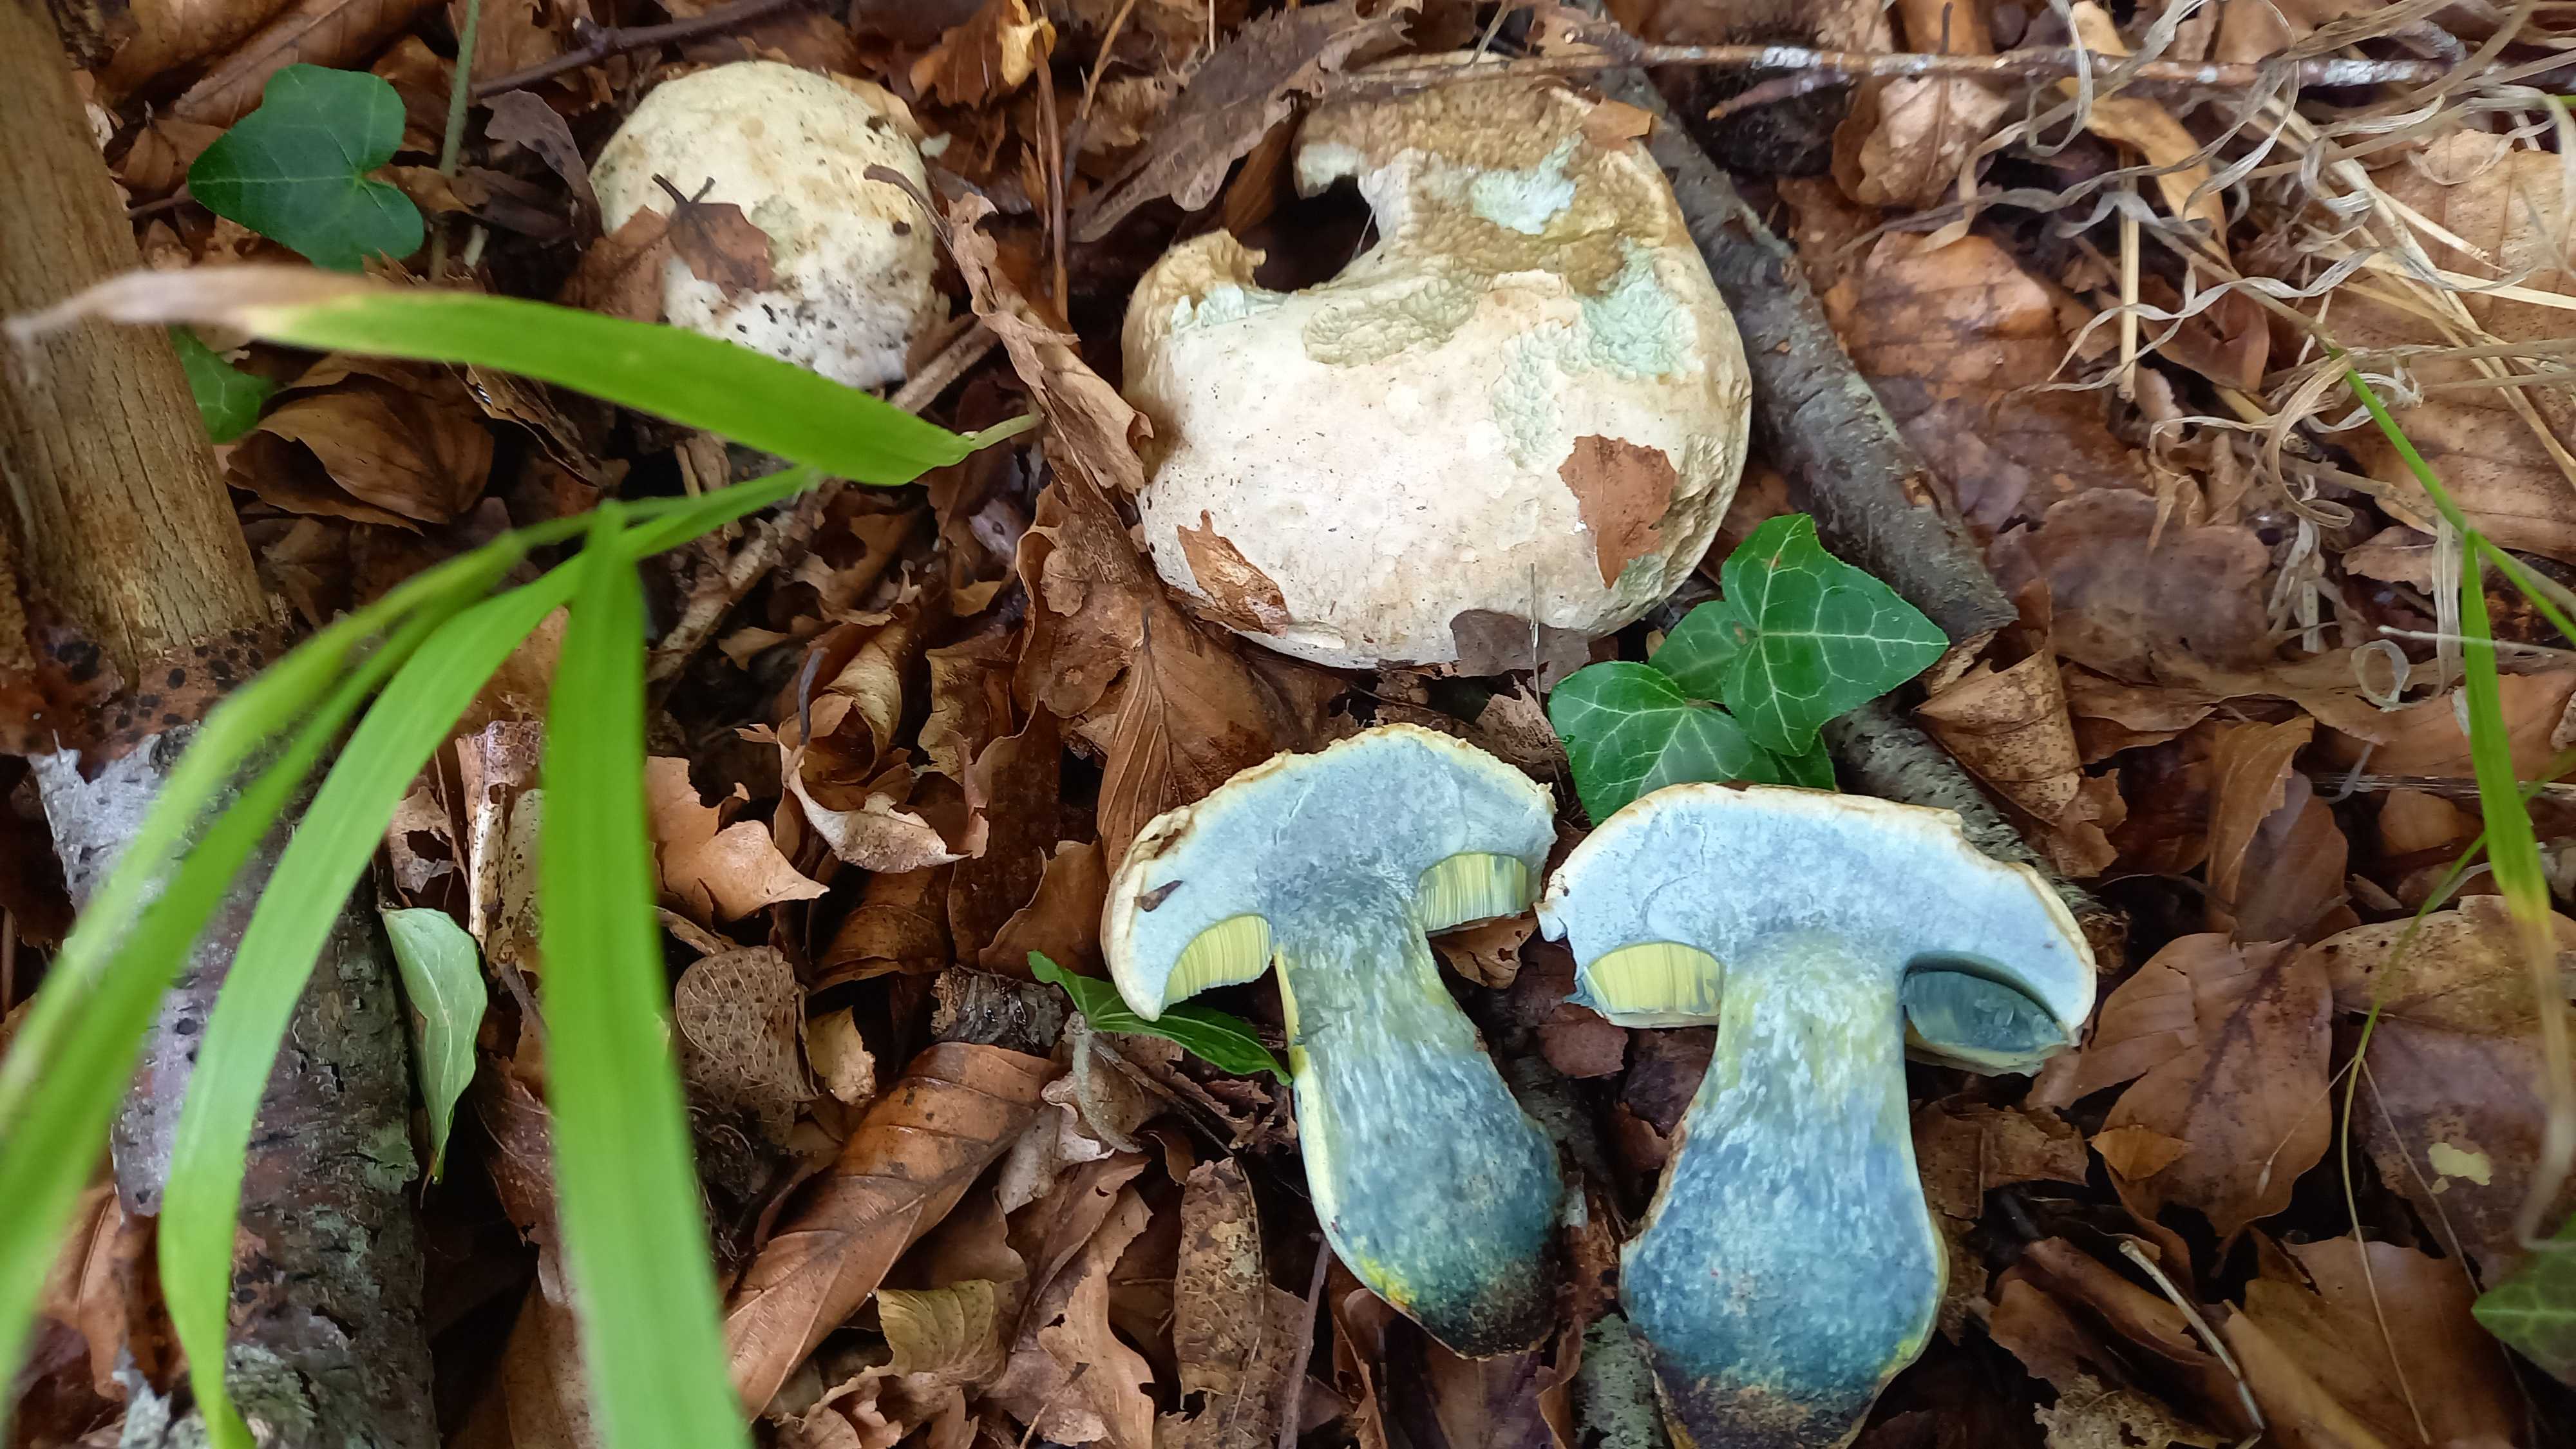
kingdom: Fungi
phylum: Basidiomycota
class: Agaricomycetes
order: Boletales
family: Boletaceae
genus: Caloboletus
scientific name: Caloboletus radicans
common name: rod-rørhat
